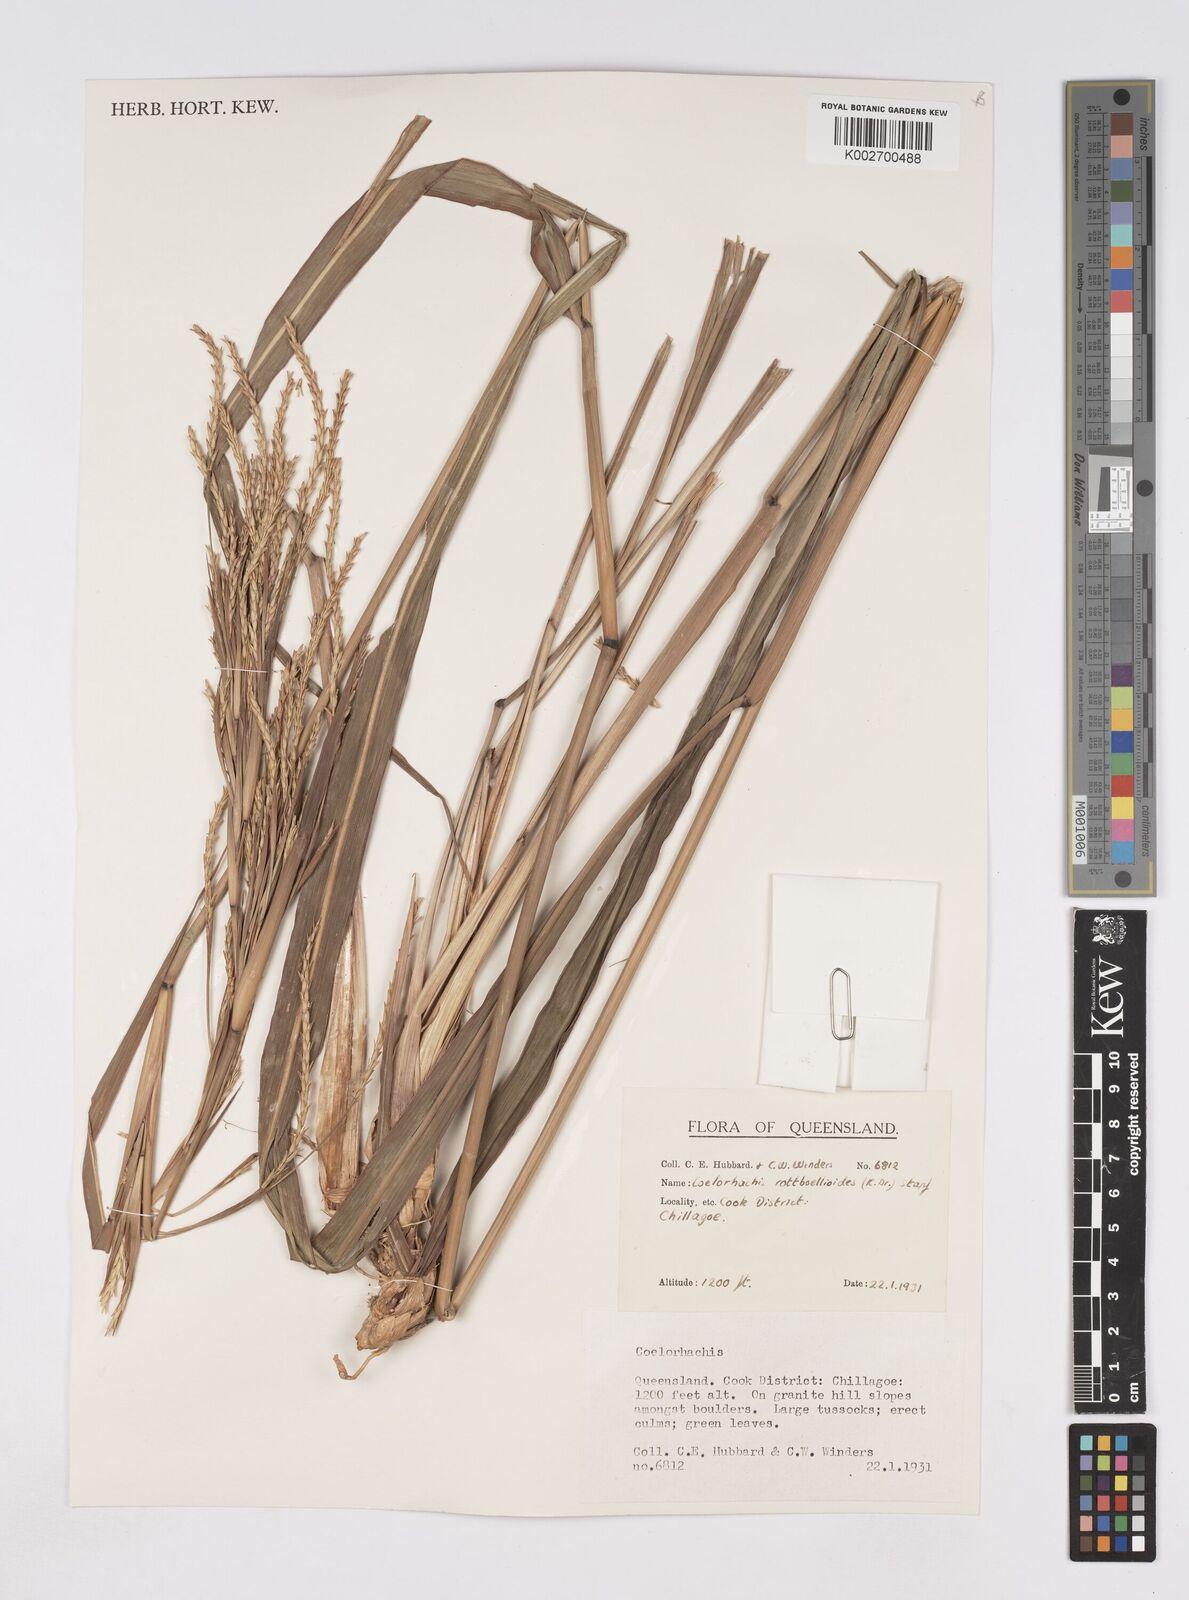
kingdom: Plantae
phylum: Tracheophyta
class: Liliopsida
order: Poales
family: Poaceae
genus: Rottboellia
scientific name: Rottboellia rottboellioides
